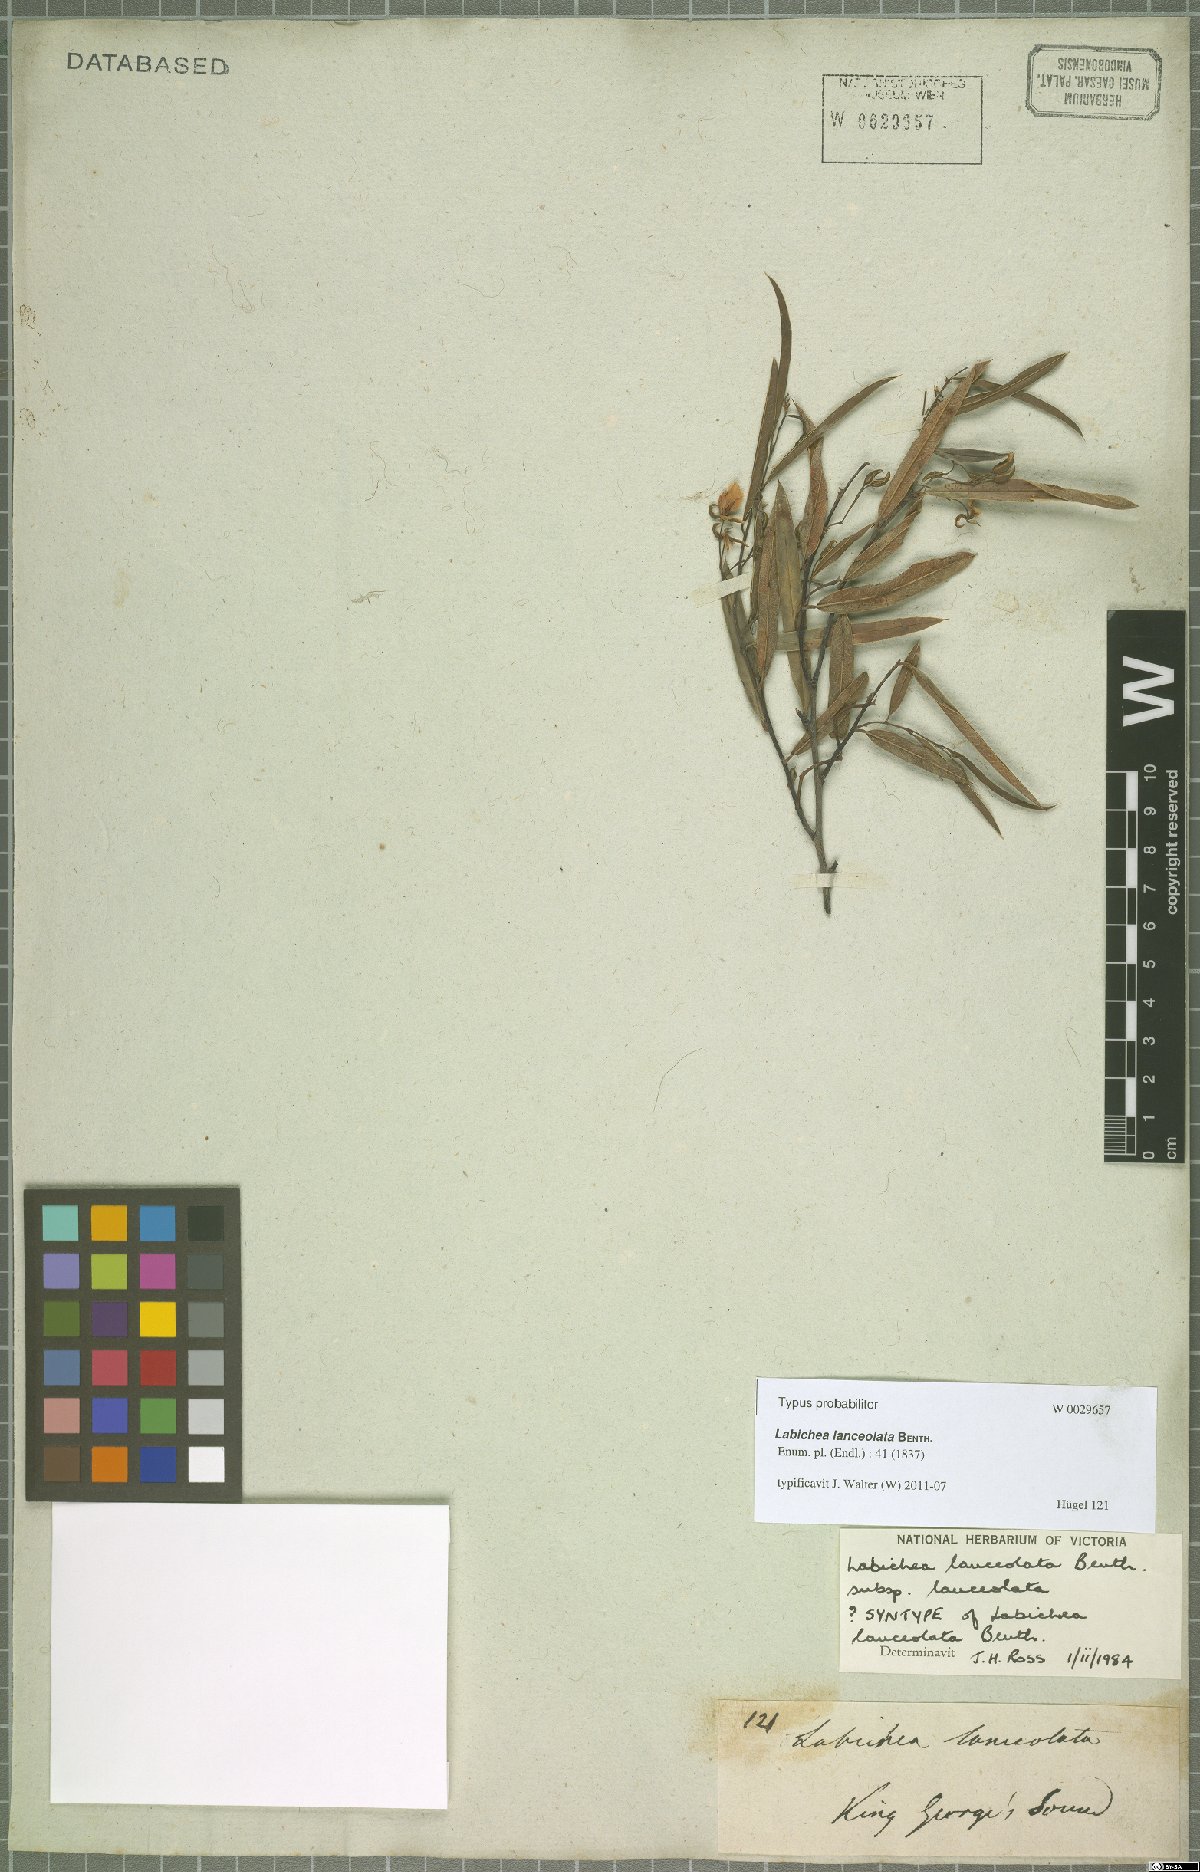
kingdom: Plantae
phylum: Tracheophyta
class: Magnoliopsida
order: Fabales
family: Fabaceae
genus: Labichea
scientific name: Labichea lanceolata
